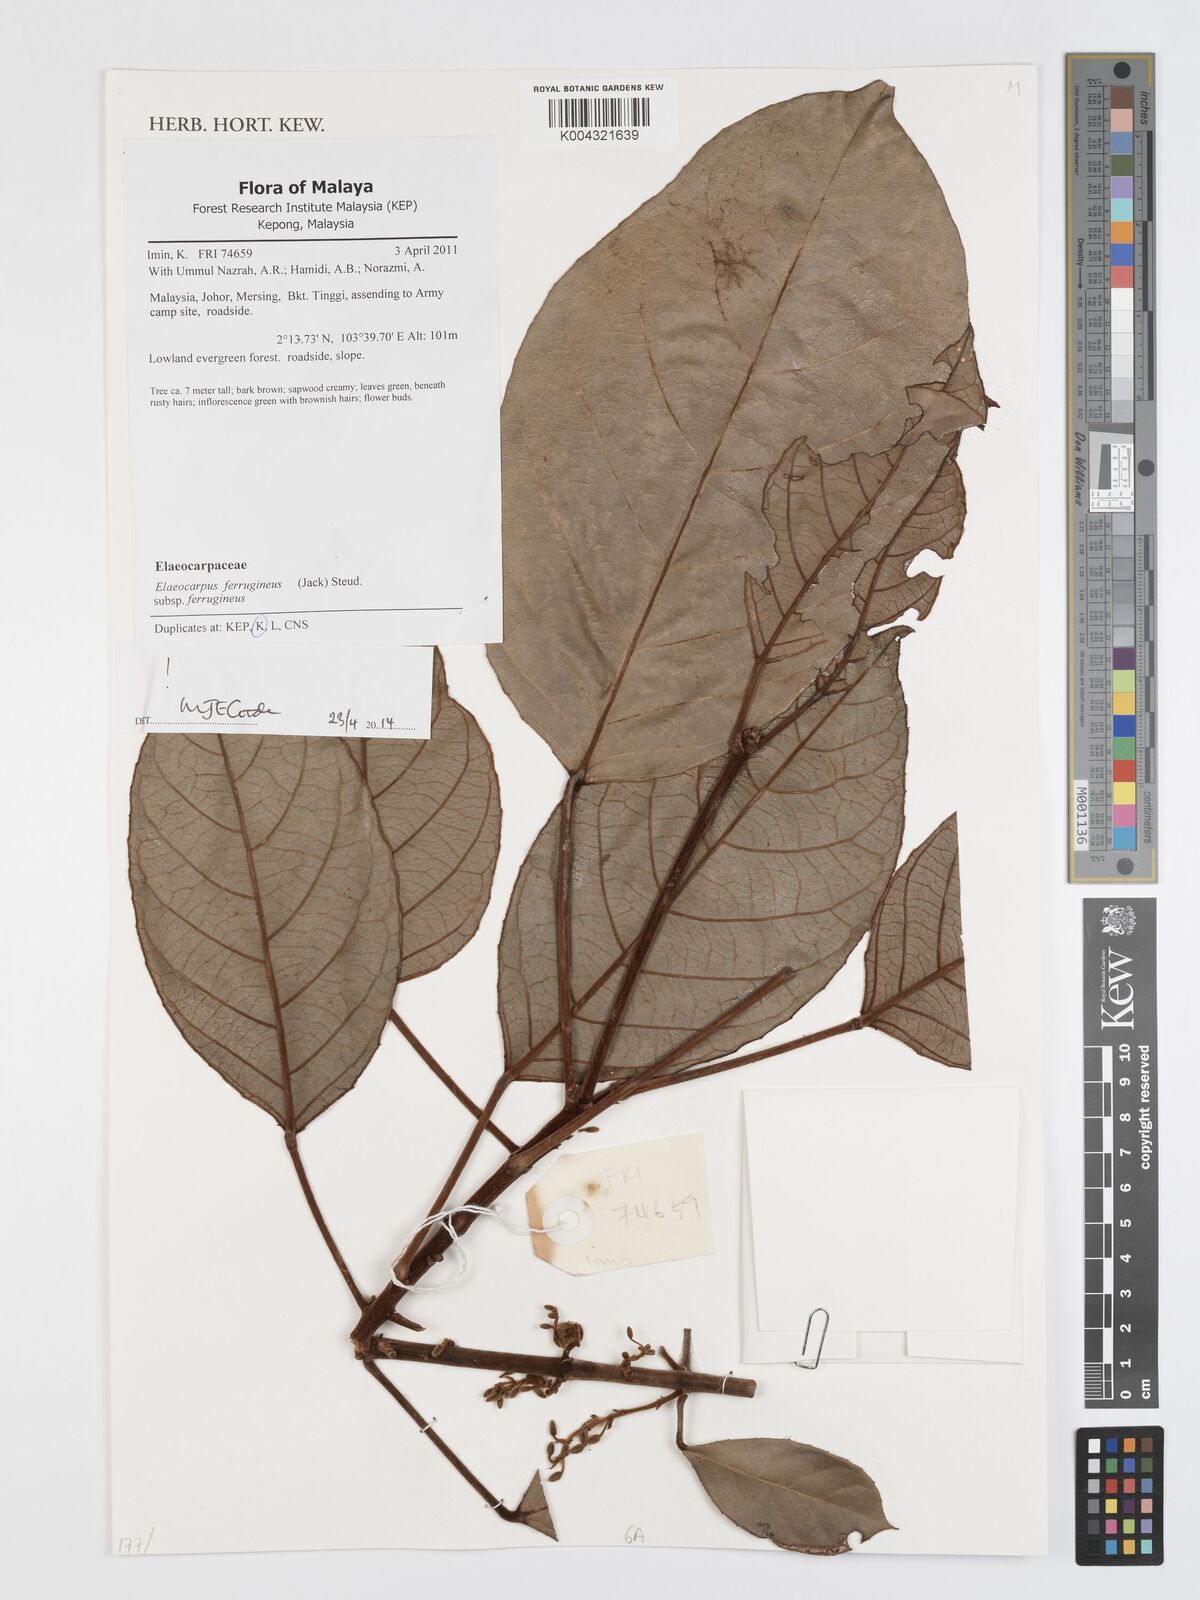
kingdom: Plantae
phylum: Tracheophyta
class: Magnoliopsida
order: Oxalidales
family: Elaeocarpaceae
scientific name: Elaeocarpaceae
